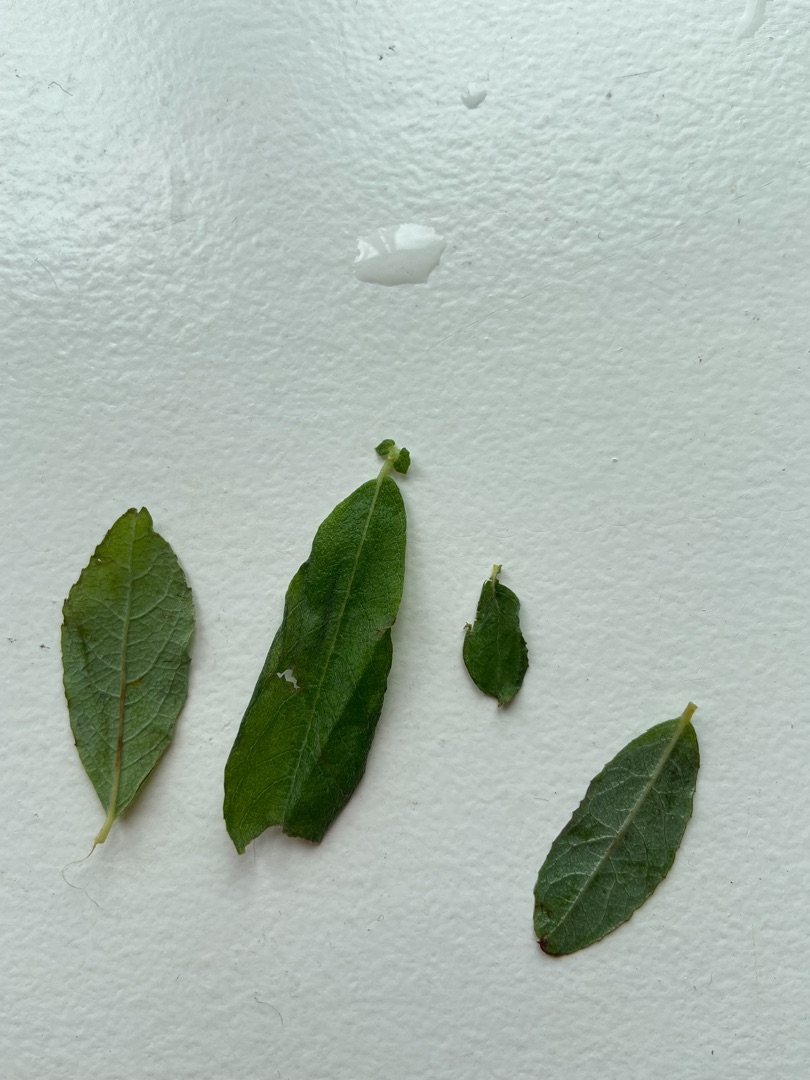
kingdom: Plantae
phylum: Tracheophyta
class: Magnoliopsida
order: Malpighiales
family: Salicaceae
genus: Salix
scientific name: Salix cinerea
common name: Grå-pil
